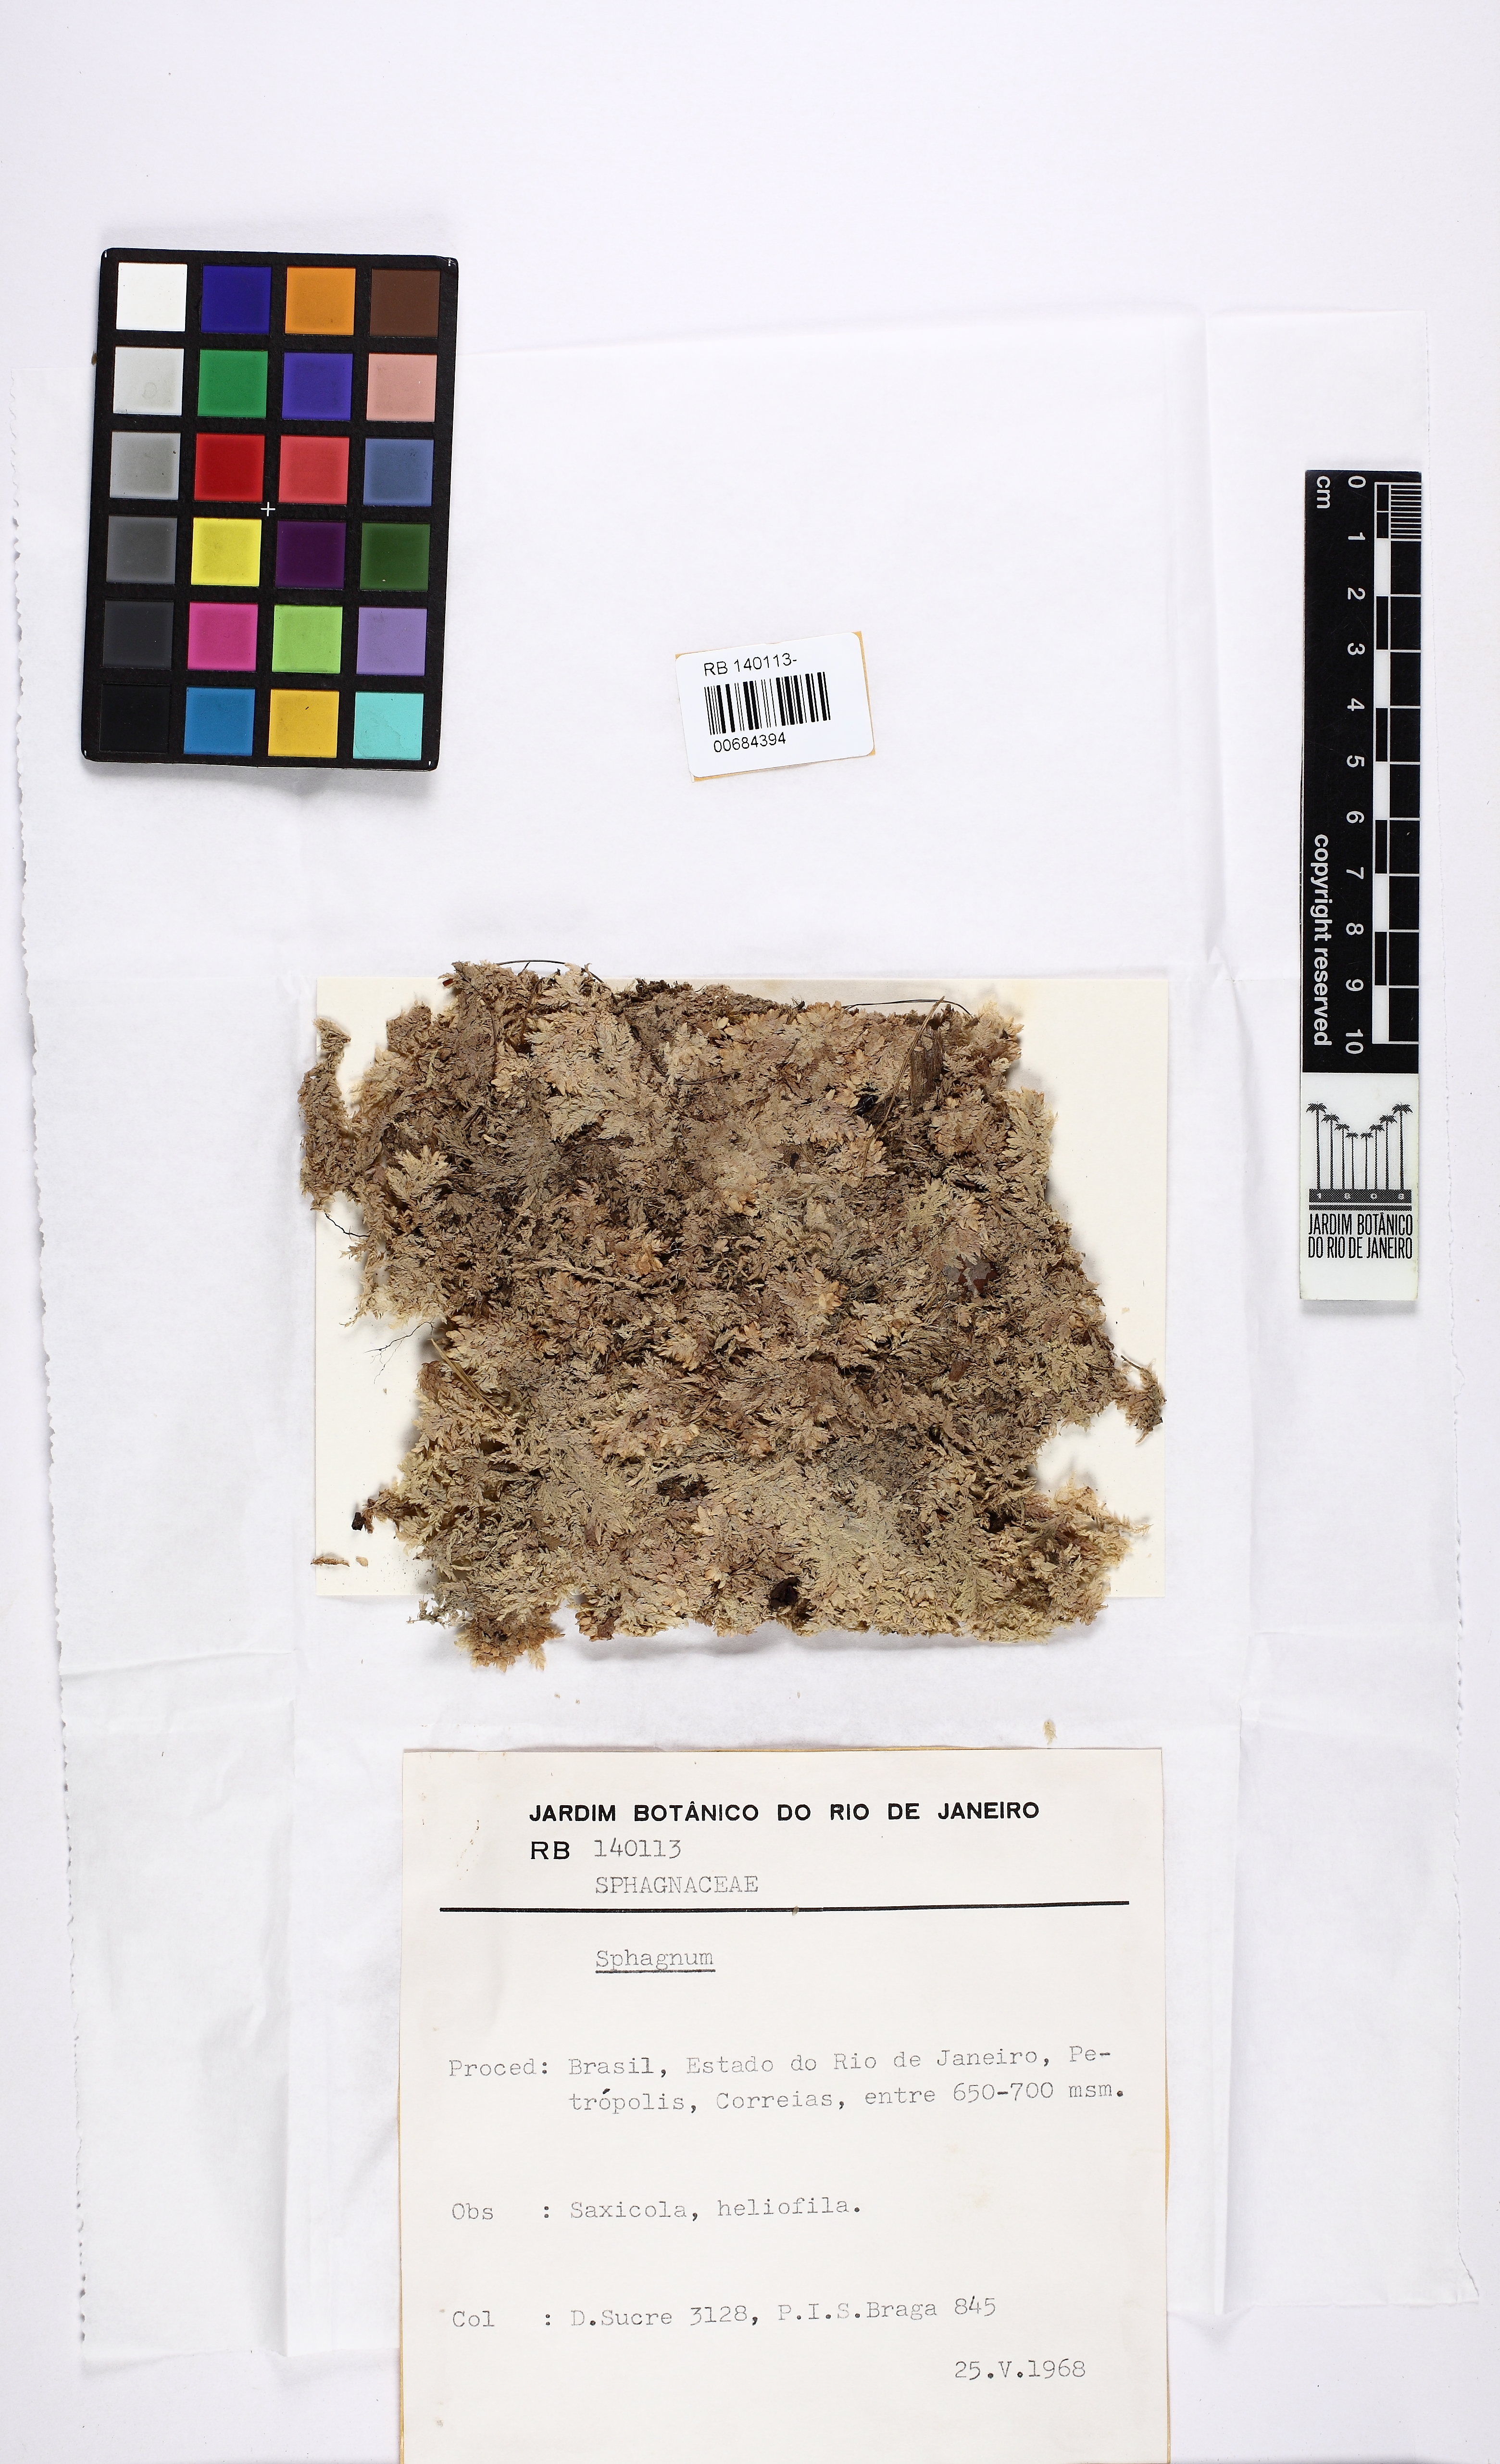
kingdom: Plantae
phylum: Bryophyta
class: Sphagnopsida
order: Sphagnales
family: Sphagnaceae
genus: Sphagnum
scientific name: Sphagnum
